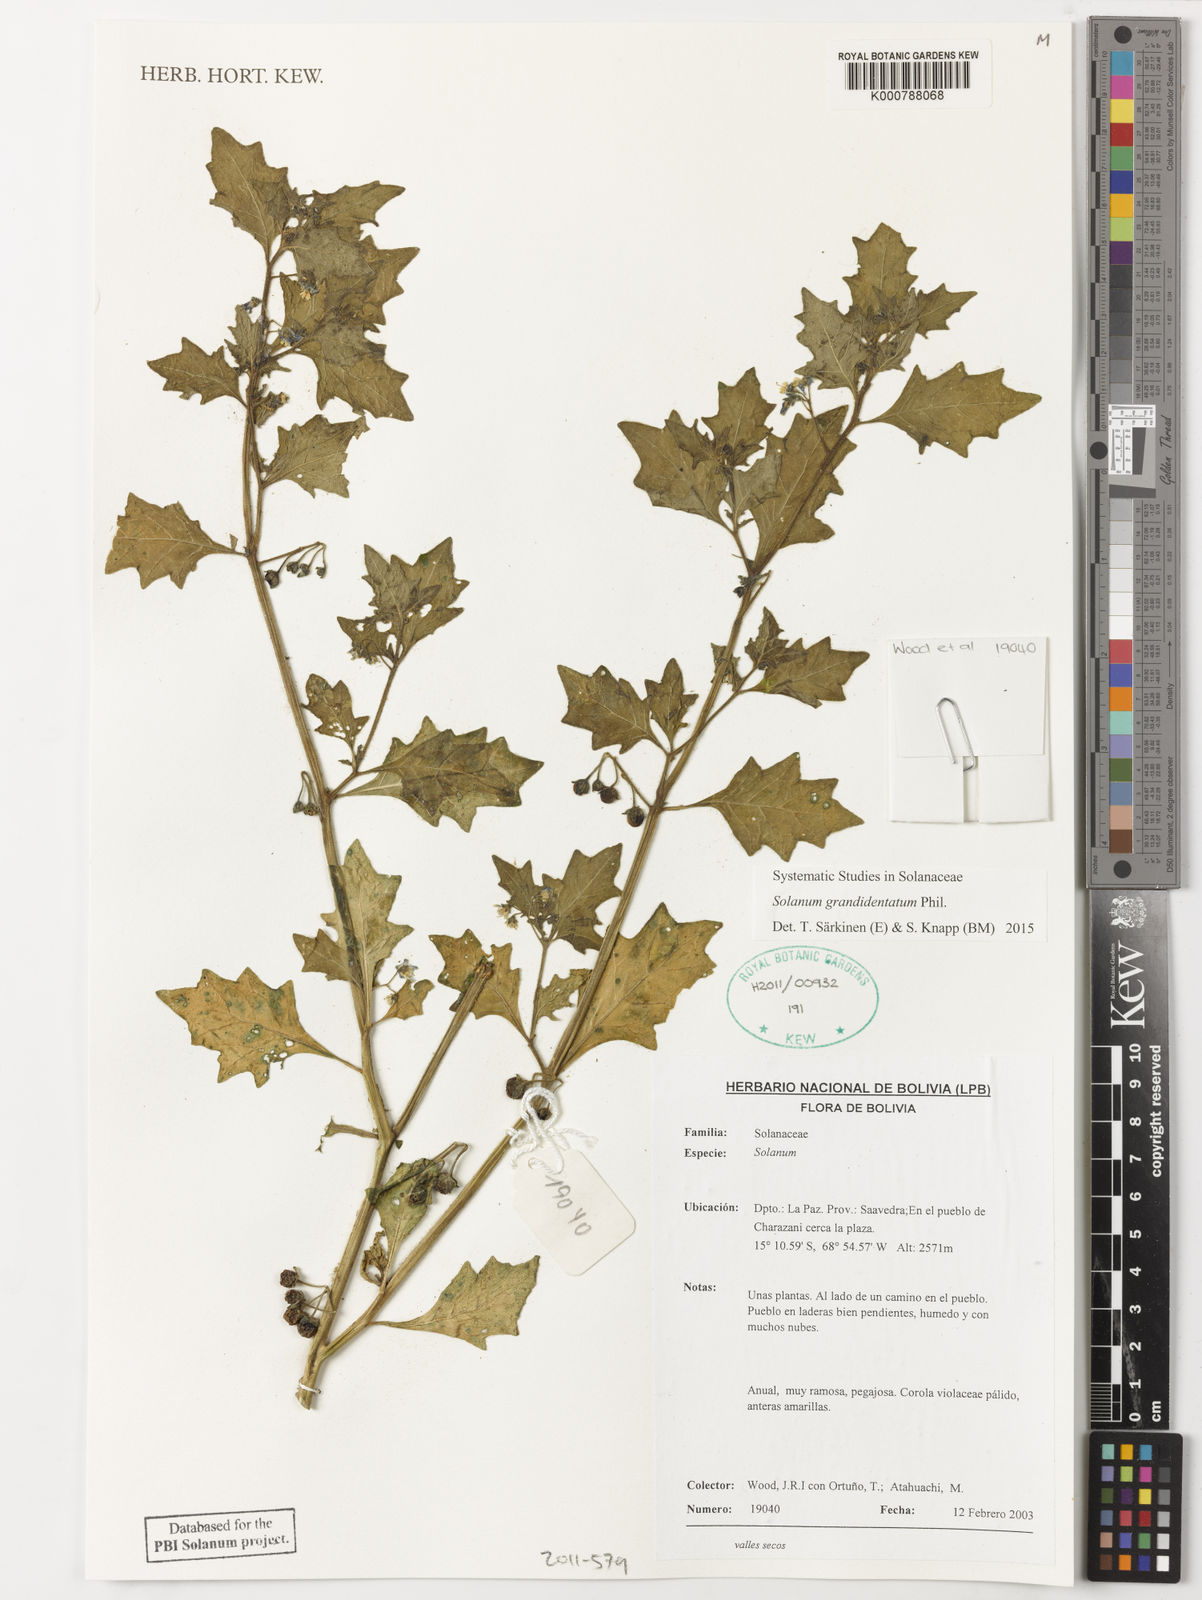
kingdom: Plantae
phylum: Tracheophyta
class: Magnoliopsida
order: Solanales
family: Solanaceae
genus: Solanum
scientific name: Solanum grandidentatum
